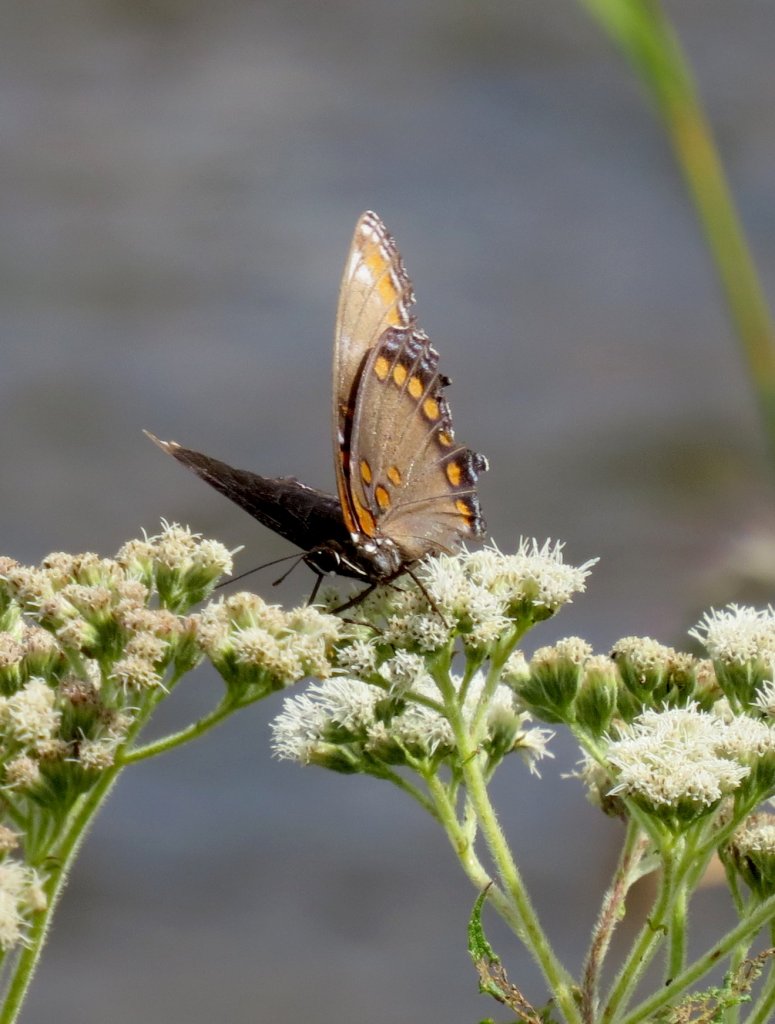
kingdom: Animalia
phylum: Arthropoda
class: Insecta
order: Lepidoptera
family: Nymphalidae
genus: Limenitis
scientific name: Limenitis astyanax
